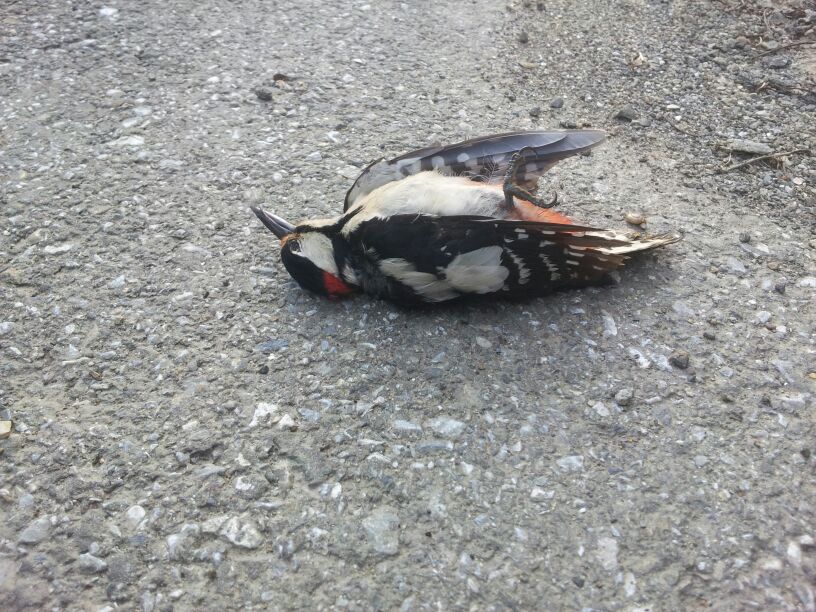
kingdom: Animalia
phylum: Chordata
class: Aves
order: Piciformes
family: Picidae
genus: Dendrocopos
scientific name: Dendrocopos major
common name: Great spotted woodpecker
